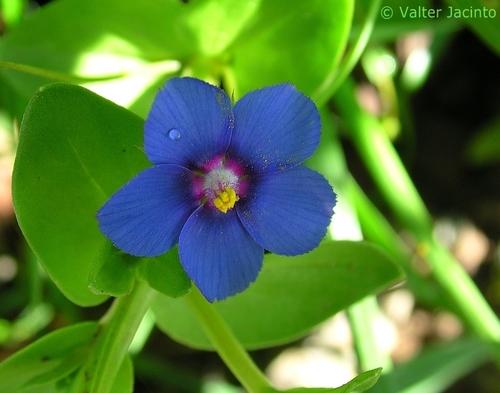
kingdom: Plantae
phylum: Tracheophyta
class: Magnoliopsida
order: Ericales
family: Primulaceae
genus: Lysimachia
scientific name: Lysimachia arvensis
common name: Scarlet pimpernel
